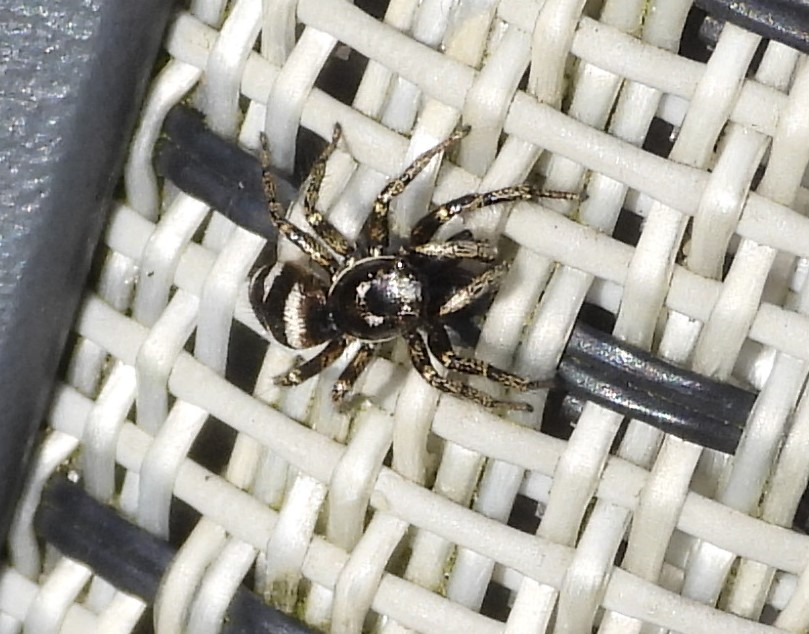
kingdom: Animalia
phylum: Arthropoda
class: Arachnida
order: Araneae
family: Salticidae
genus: Salticus
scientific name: Salticus scenicus
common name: Almindelig zebraedderkop
